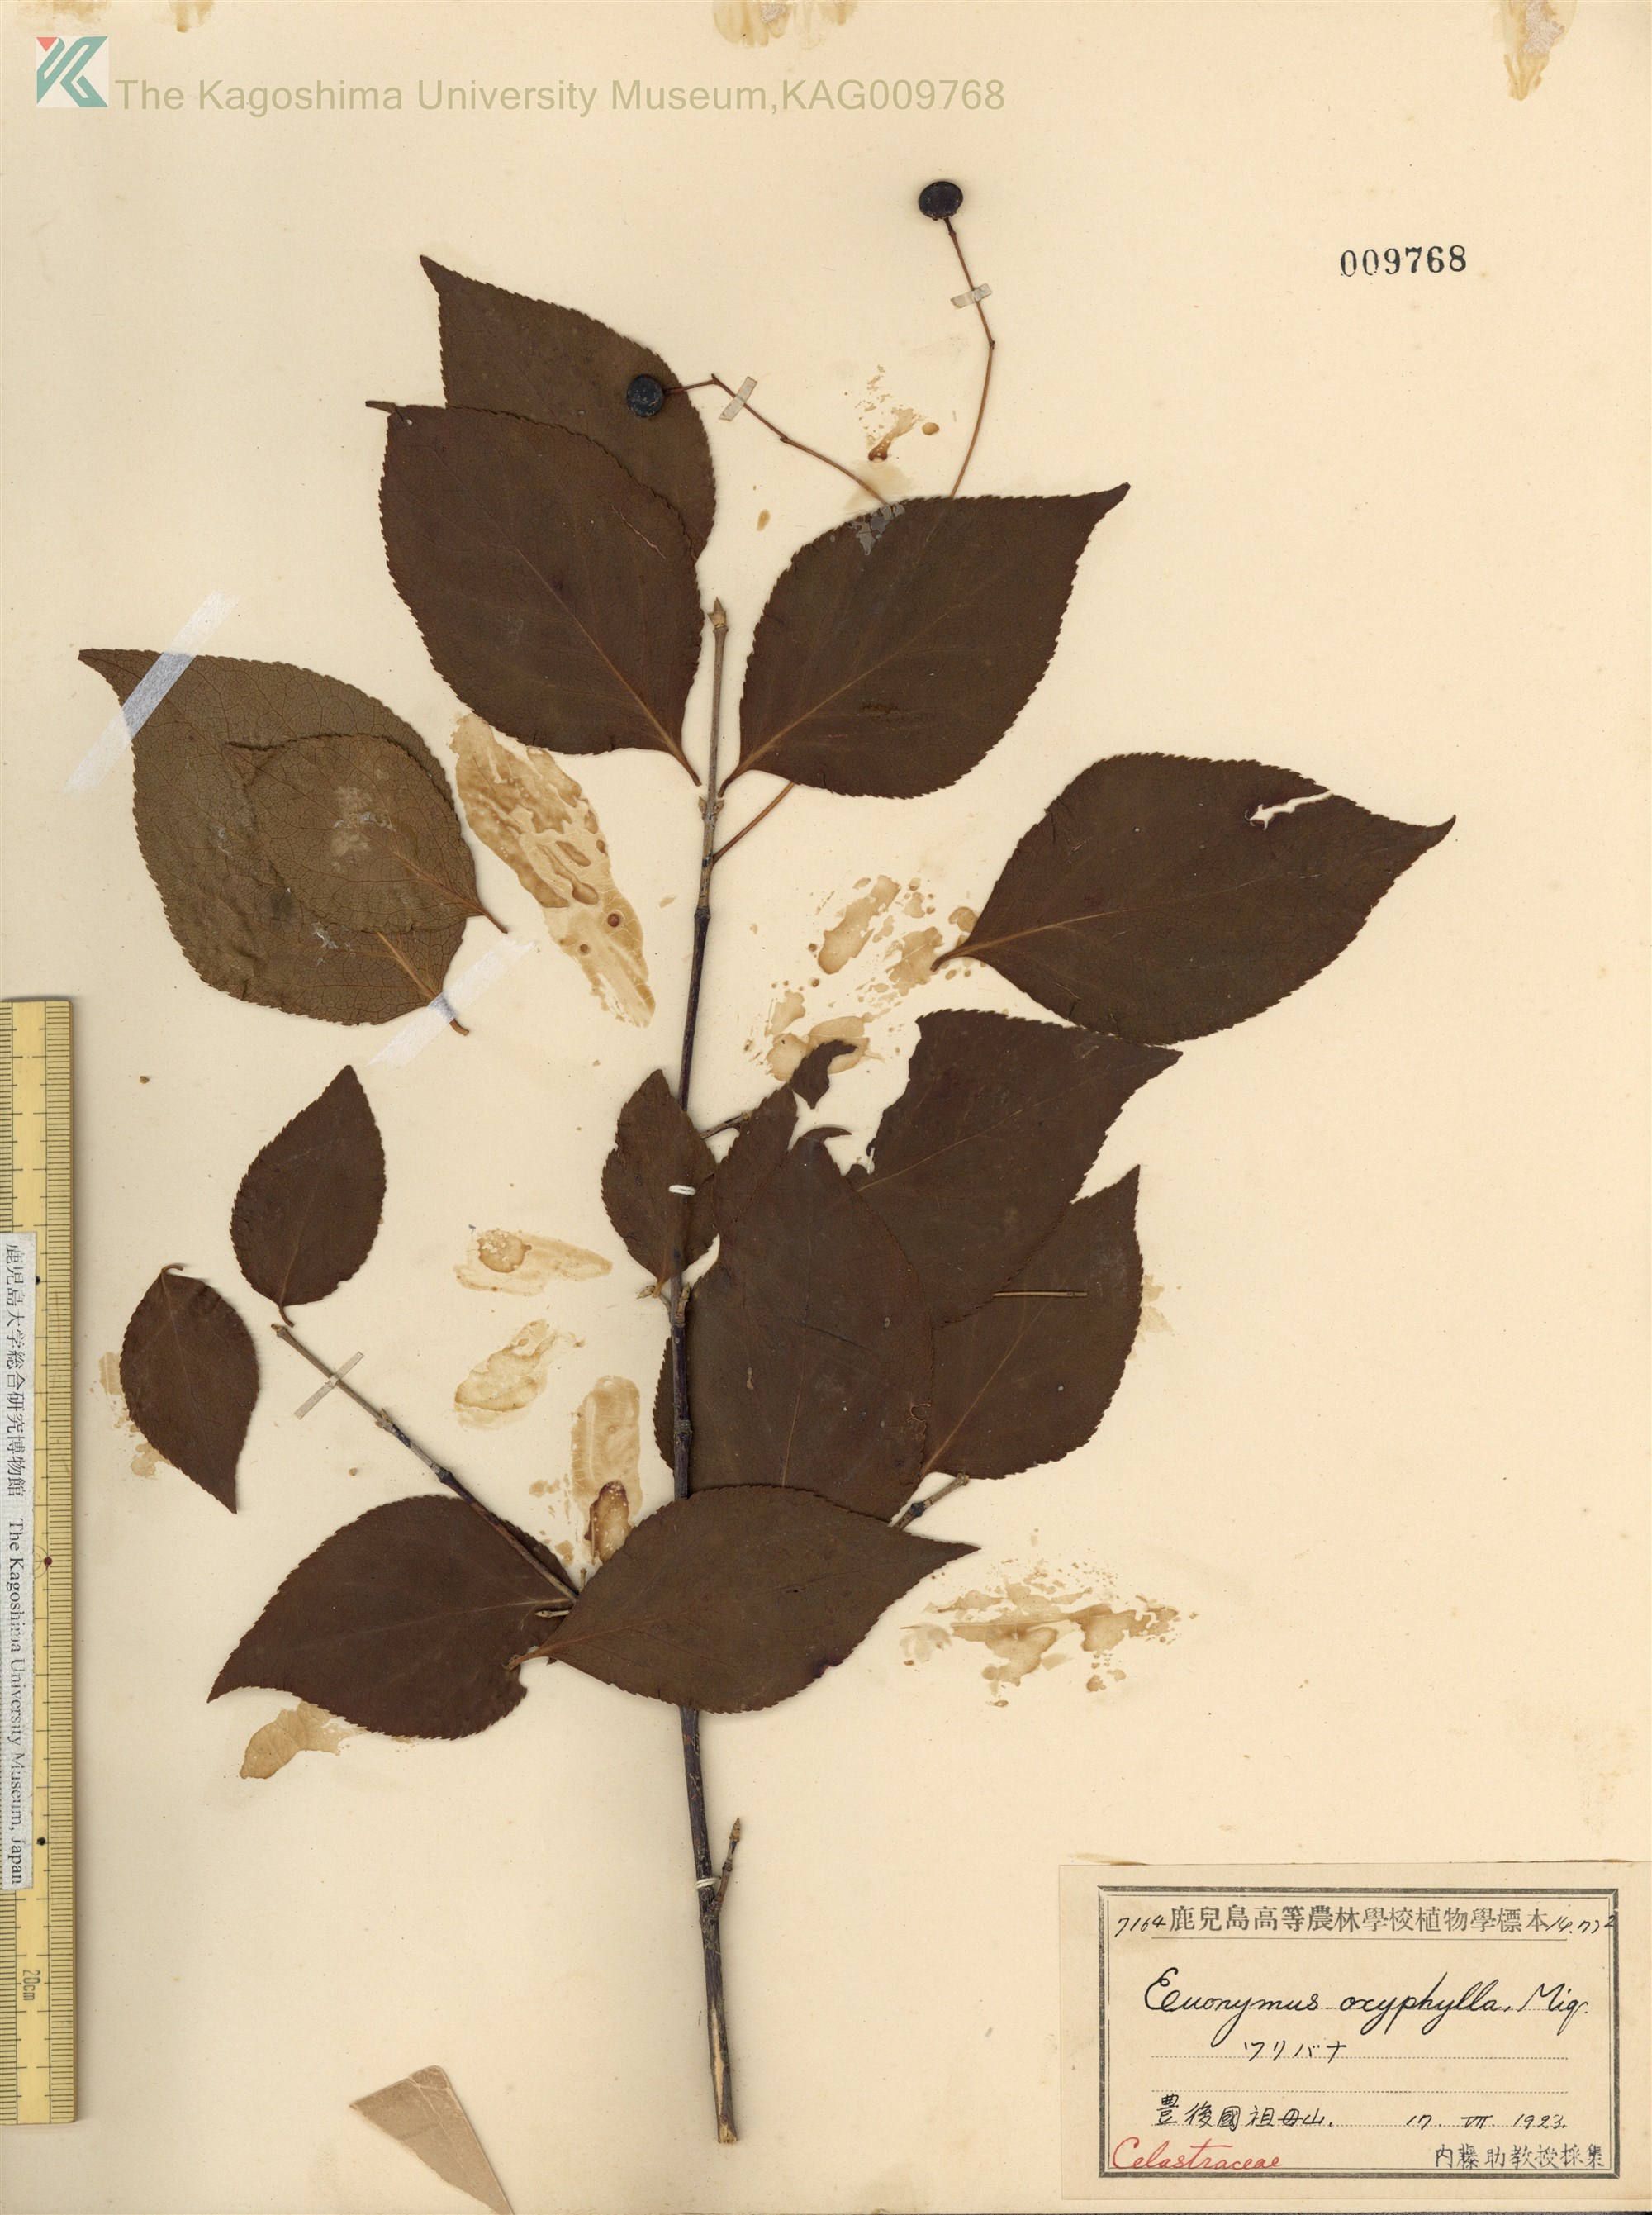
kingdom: Plantae
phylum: Tracheophyta
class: Magnoliopsida
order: Celastrales
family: Celastraceae
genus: Euonymus
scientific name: Euonymus oxyphyllus
